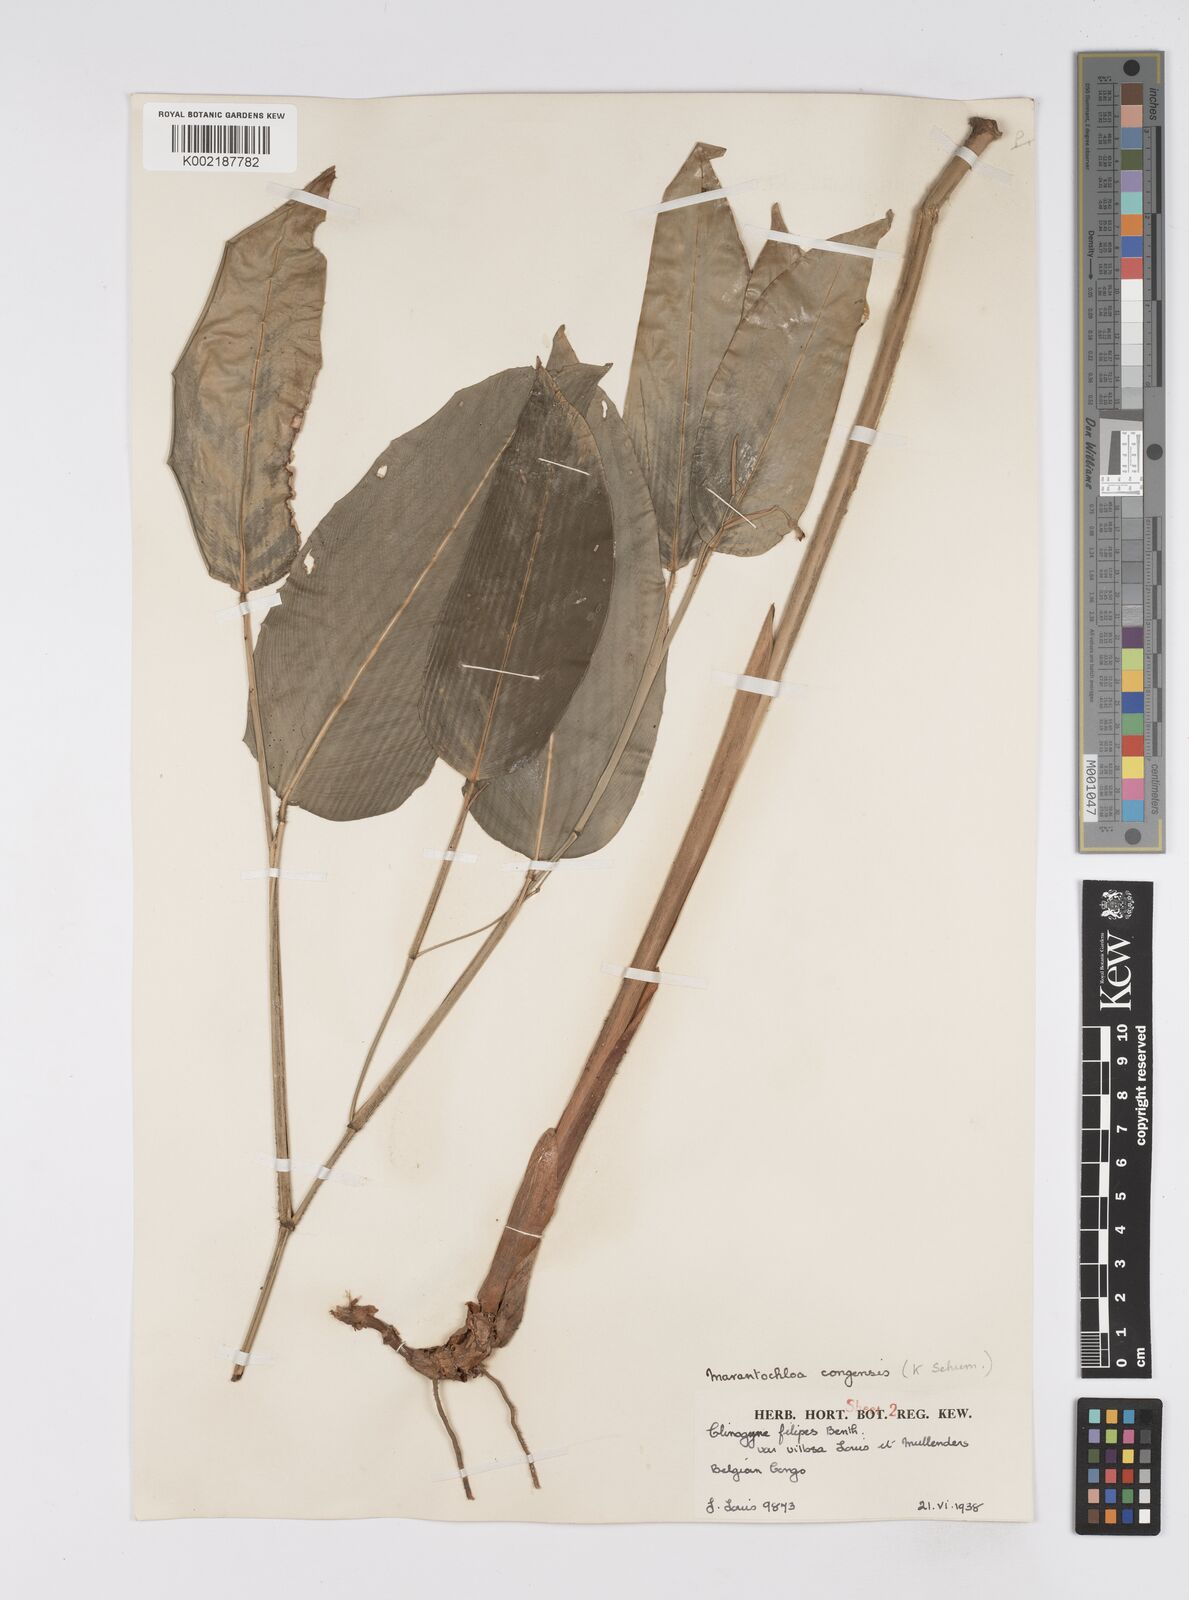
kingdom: Plantae
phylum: Tracheophyta
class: Liliopsida
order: Zingiberales
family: Marantaceae
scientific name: Marantaceae
